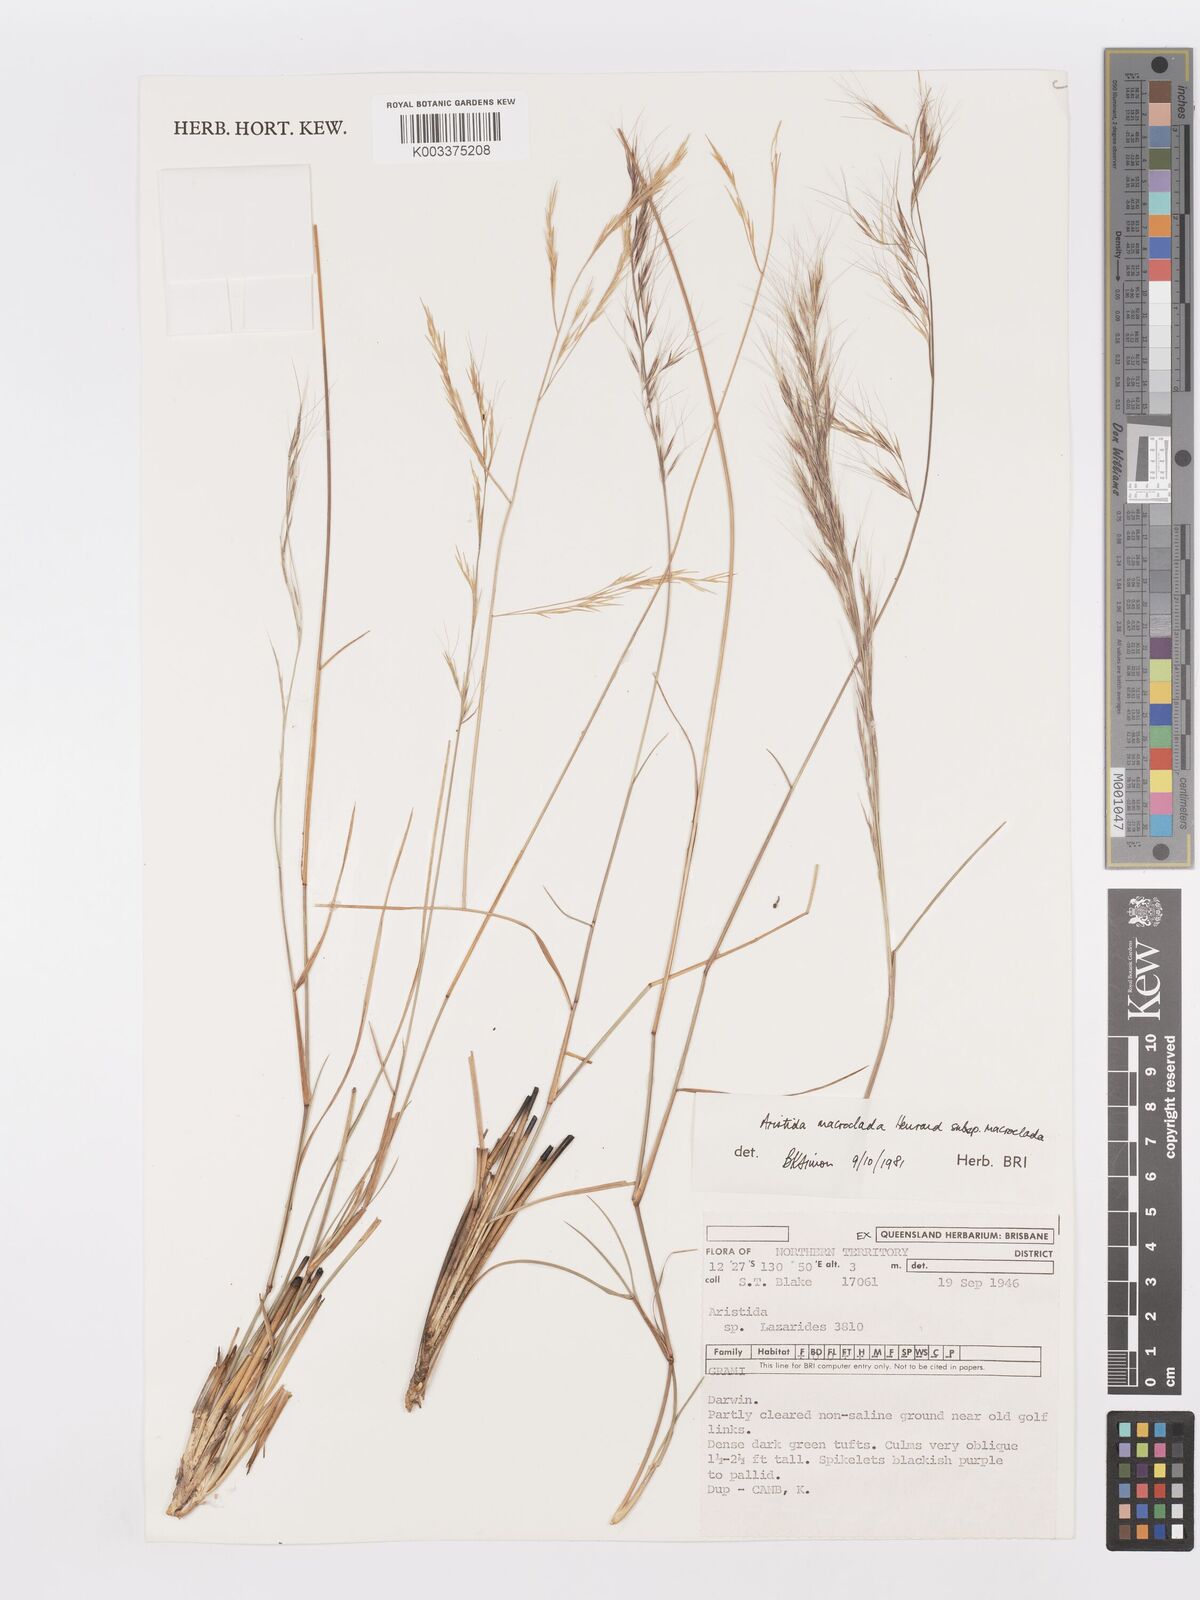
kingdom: Plantae
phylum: Tracheophyta
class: Liliopsida
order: Poales
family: Poaceae
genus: Aristida
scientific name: Aristida macroclada
